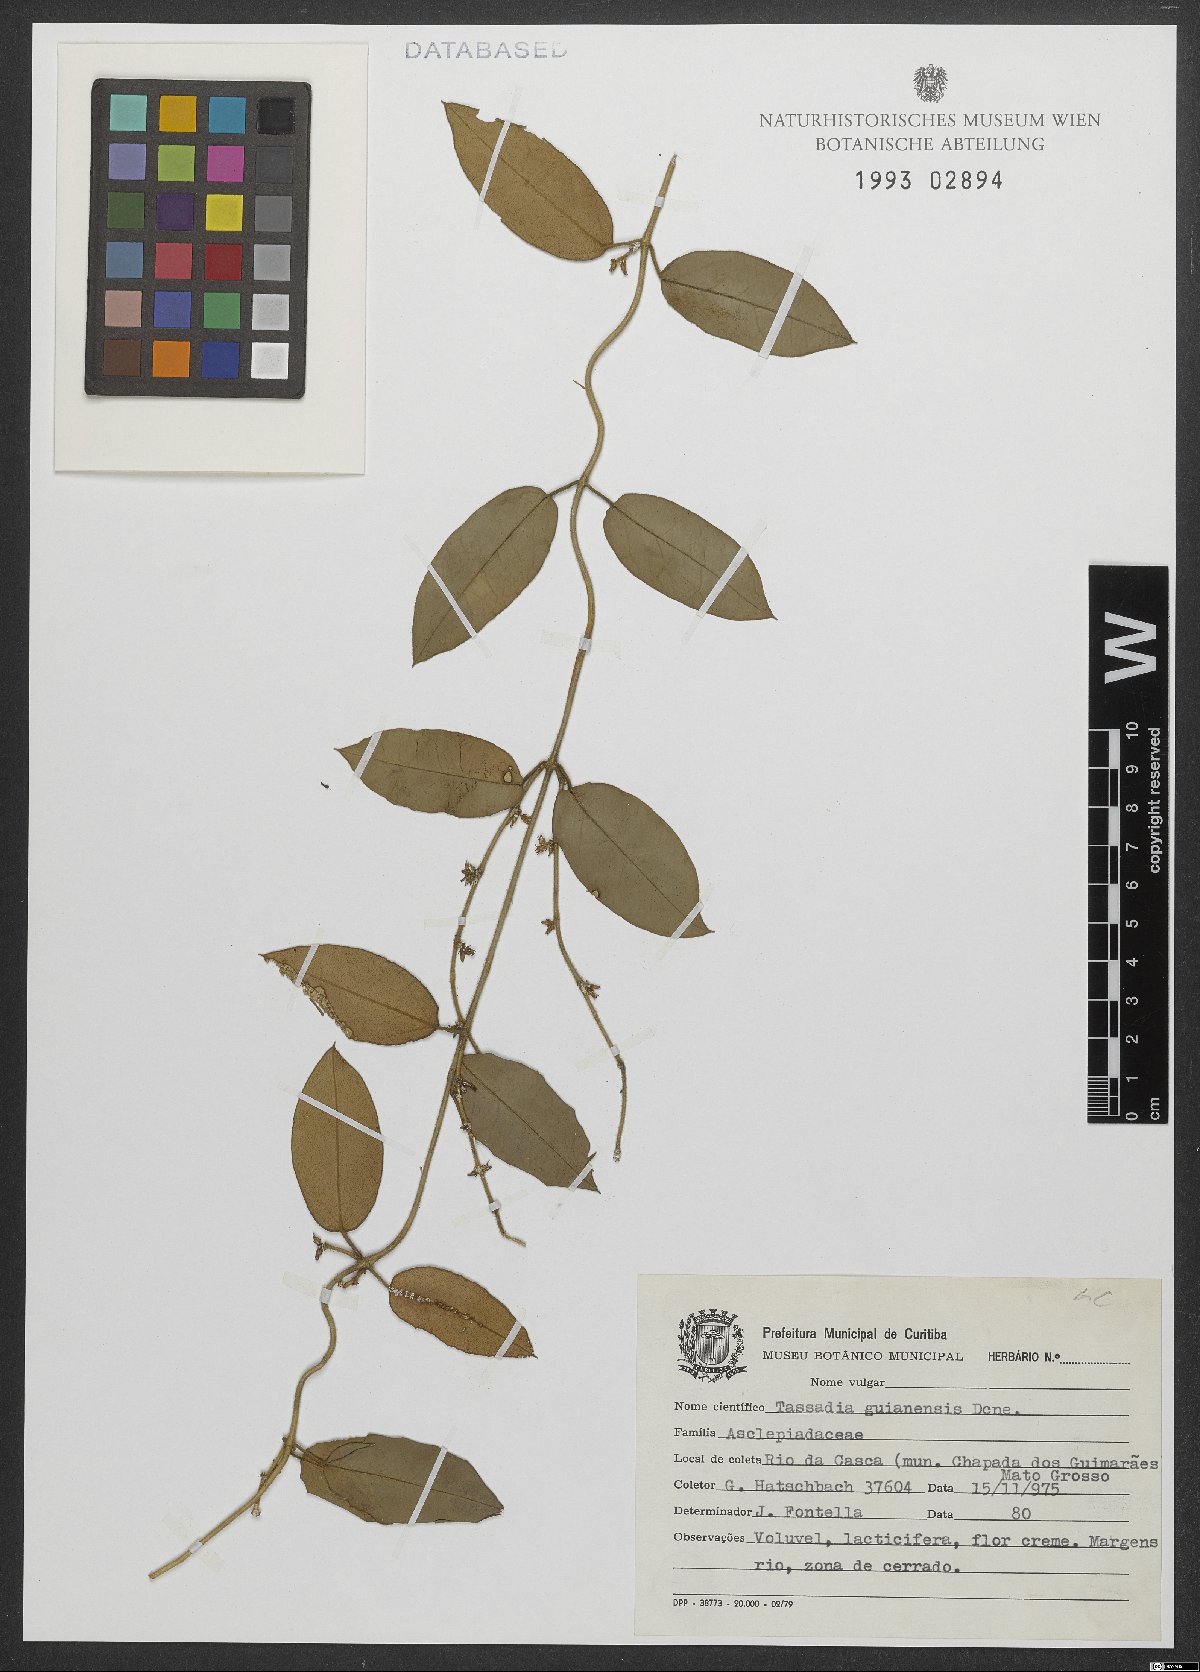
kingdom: Plantae
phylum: Tracheophyta
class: Magnoliopsida
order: Gentianales
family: Apocynaceae
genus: Tassadia
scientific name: Tassadia guianensis
